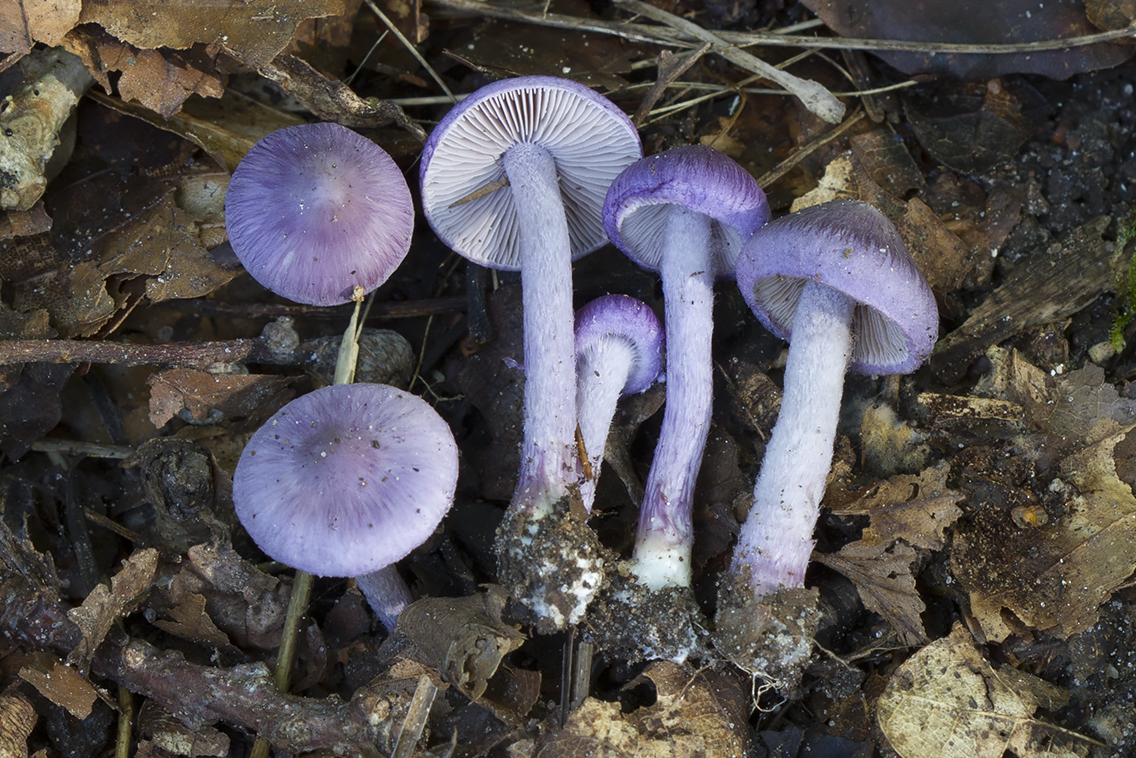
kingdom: Fungi
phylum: Basidiomycota
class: Agaricomycetes
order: Agaricales
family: Inocybaceae
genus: Inocybe
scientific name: Inocybe tyrii
